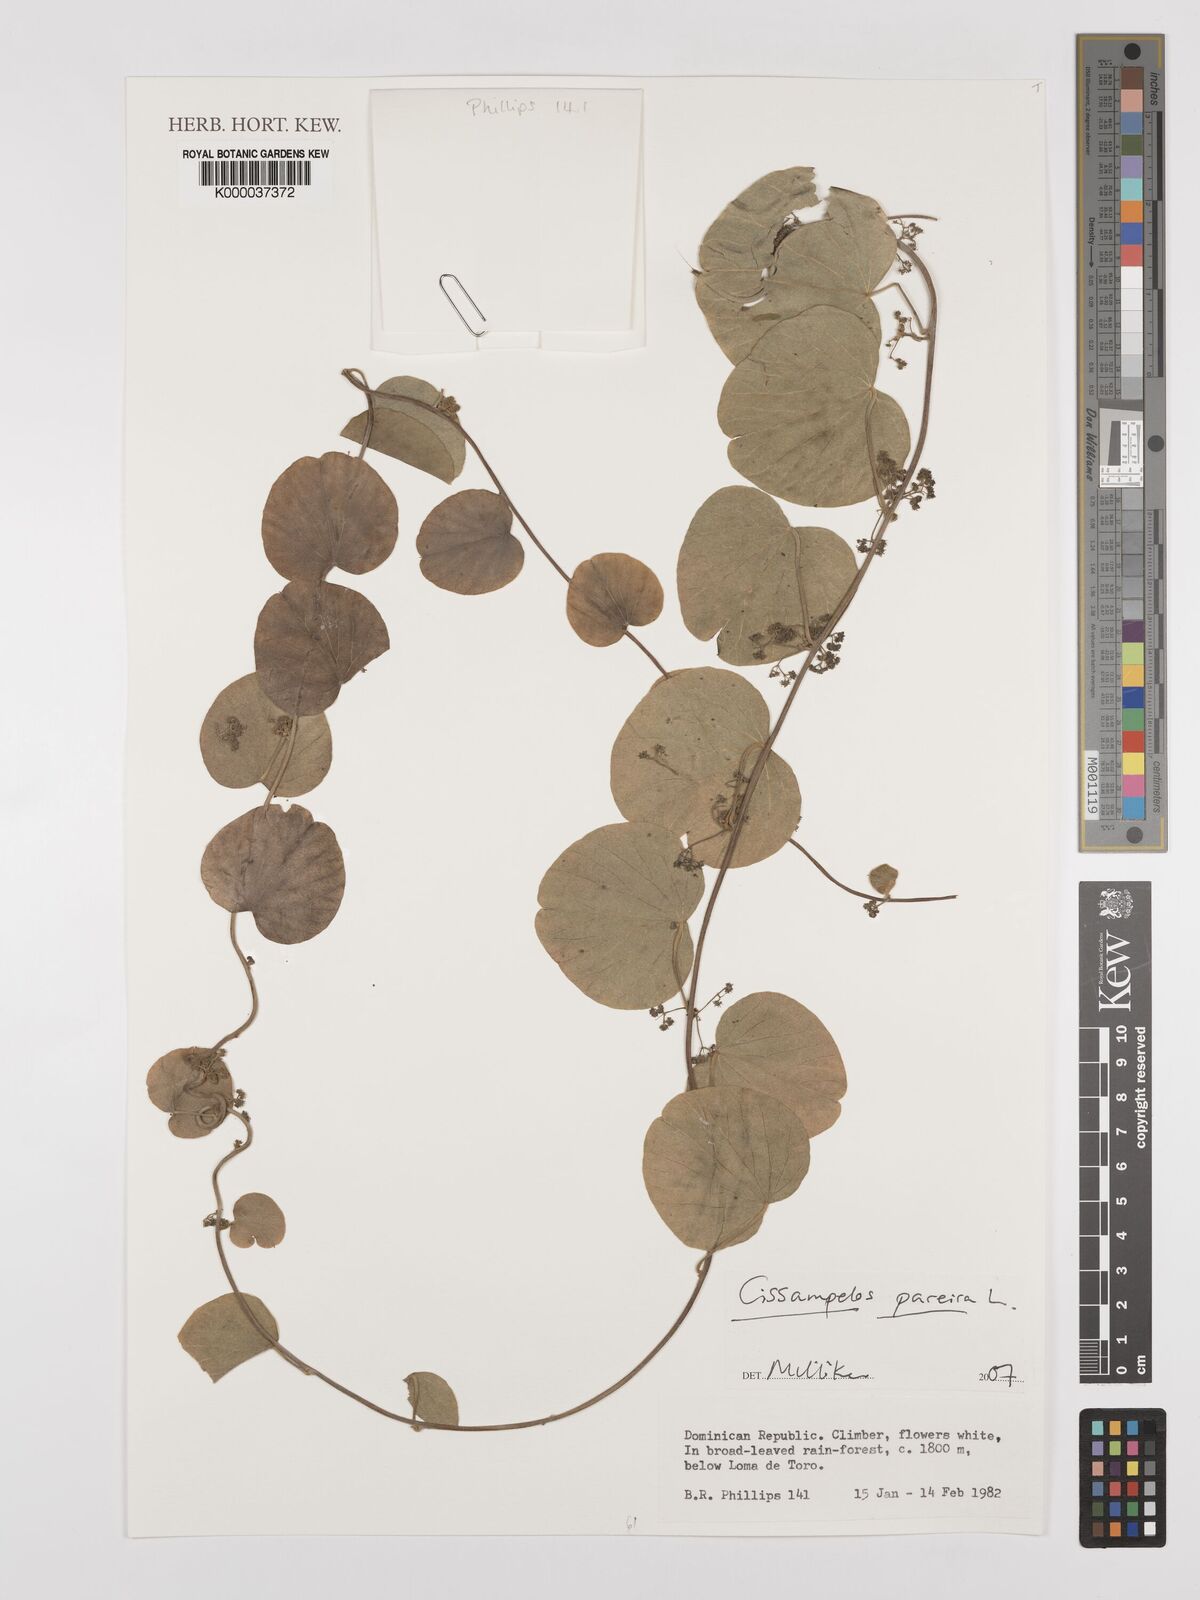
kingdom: Plantae
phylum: Tracheophyta
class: Magnoliopsida
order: Ranunculales
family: Menispermaceae
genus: Cissampelos
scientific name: Cissampelos pareira
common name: Velvetleaf
